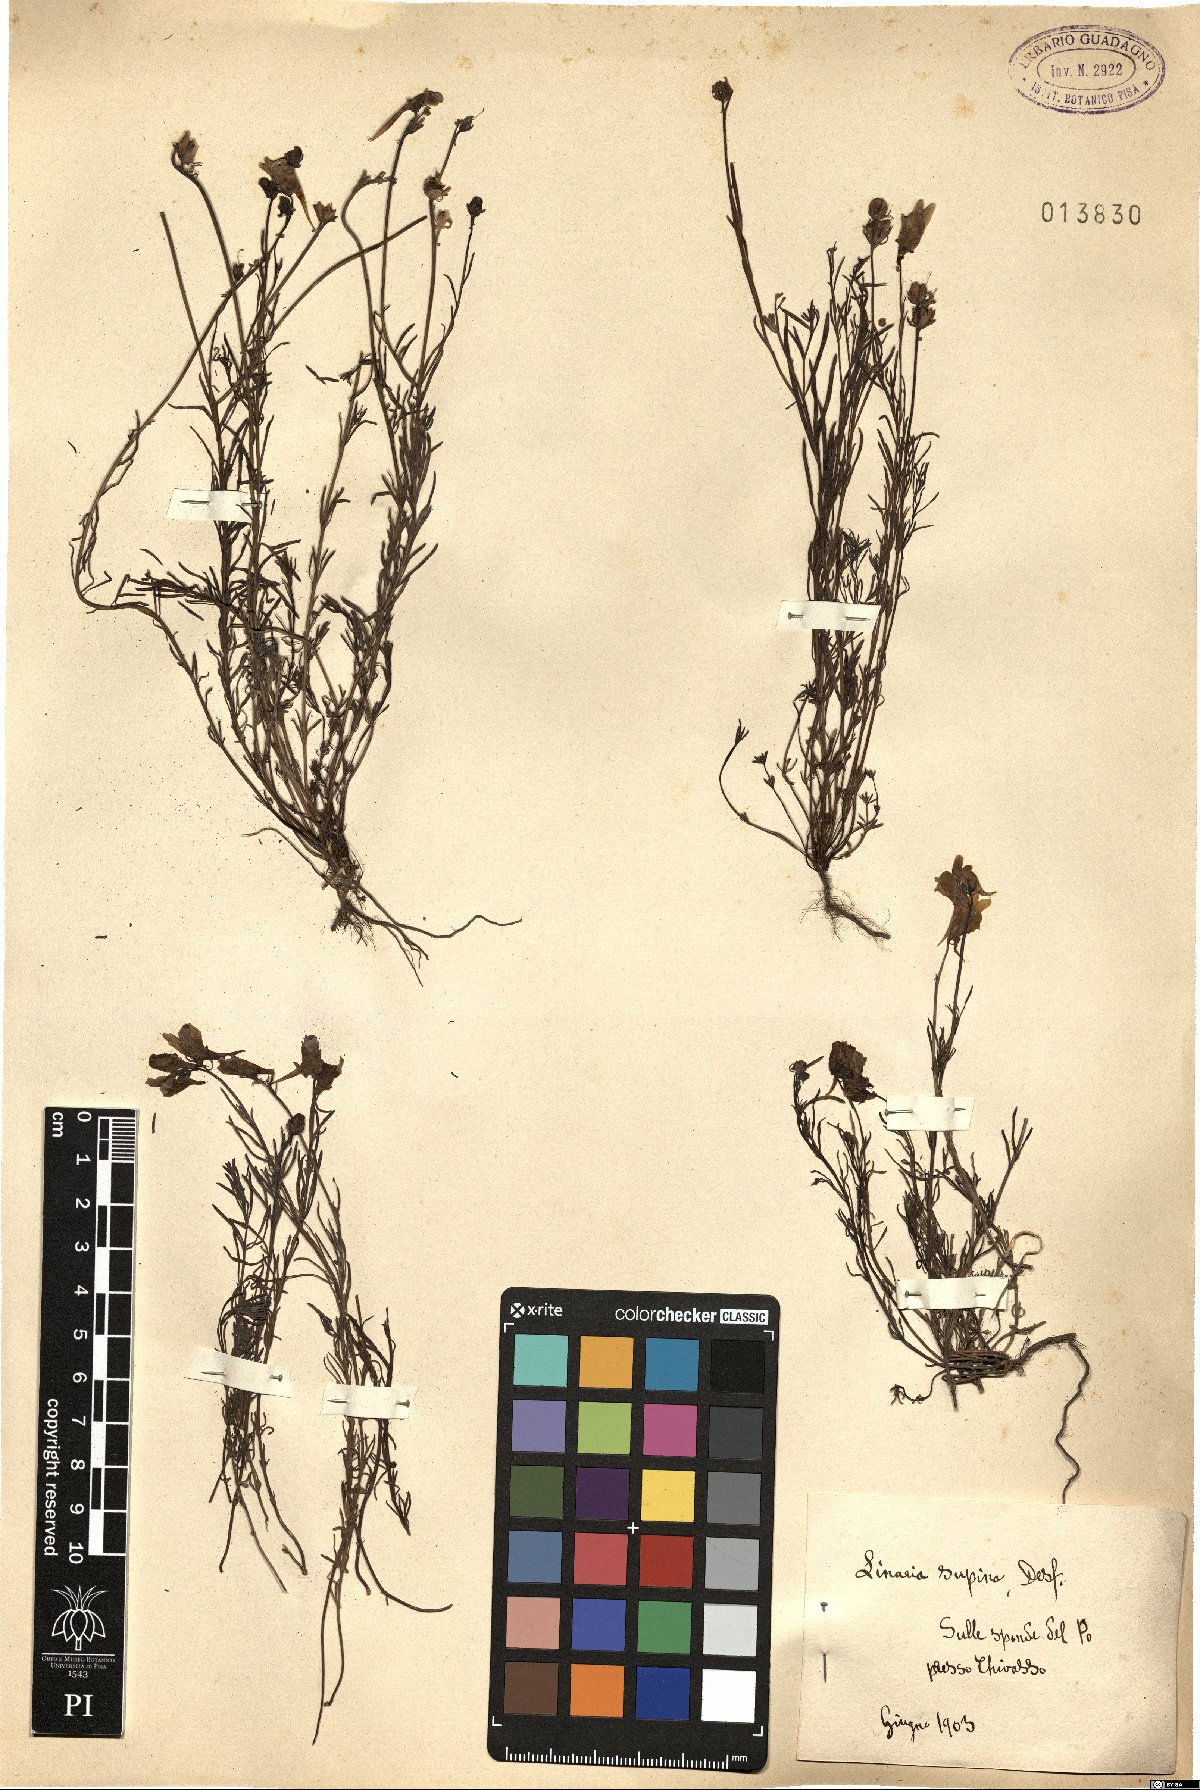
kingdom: Plantae
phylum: Tracheophyta
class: Magnoliopsida
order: Lamiales
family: Plantaginaceae
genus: Linaria
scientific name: Linaria supina
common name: Prostrate toadflax
